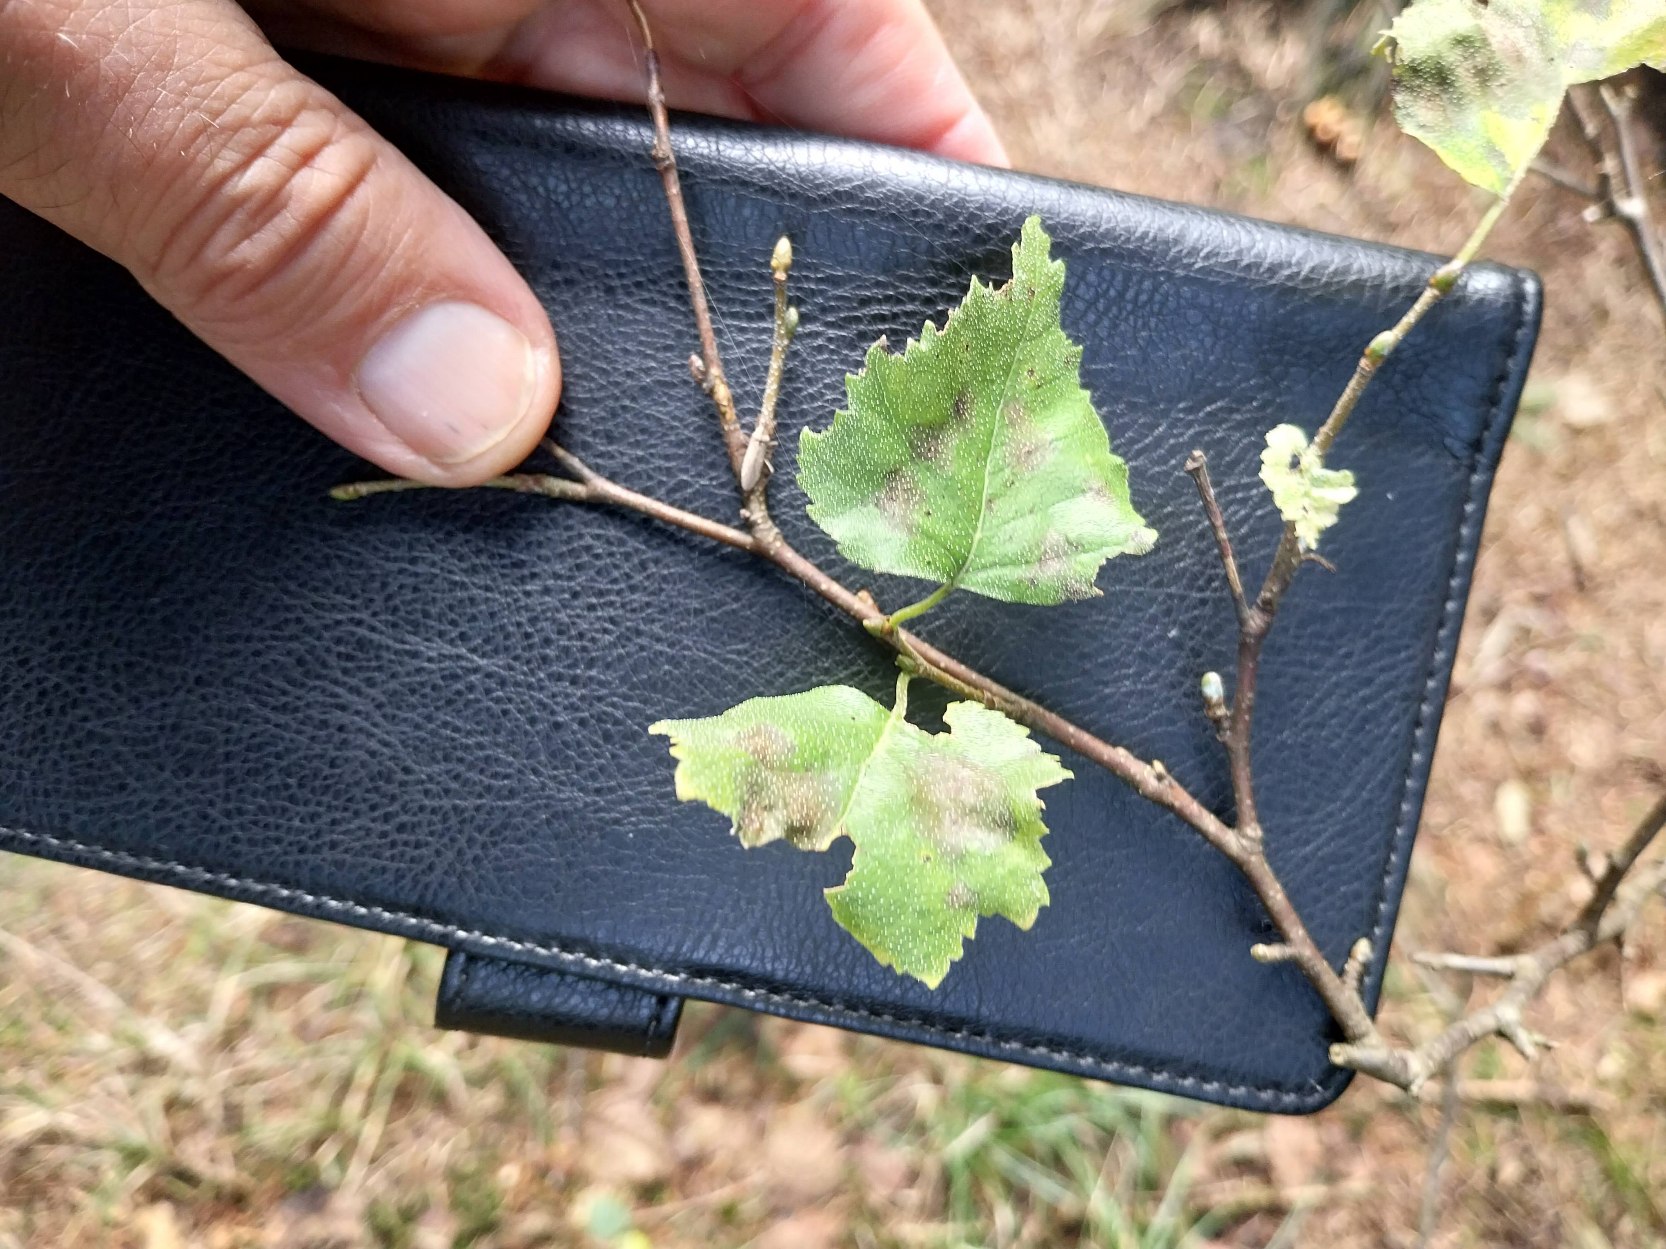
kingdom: Plantae
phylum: Tracheophyta
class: Magnoliopsida
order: Fagales
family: Betulaceae
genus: Betula
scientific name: Betula pendula
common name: Vorte-birk
